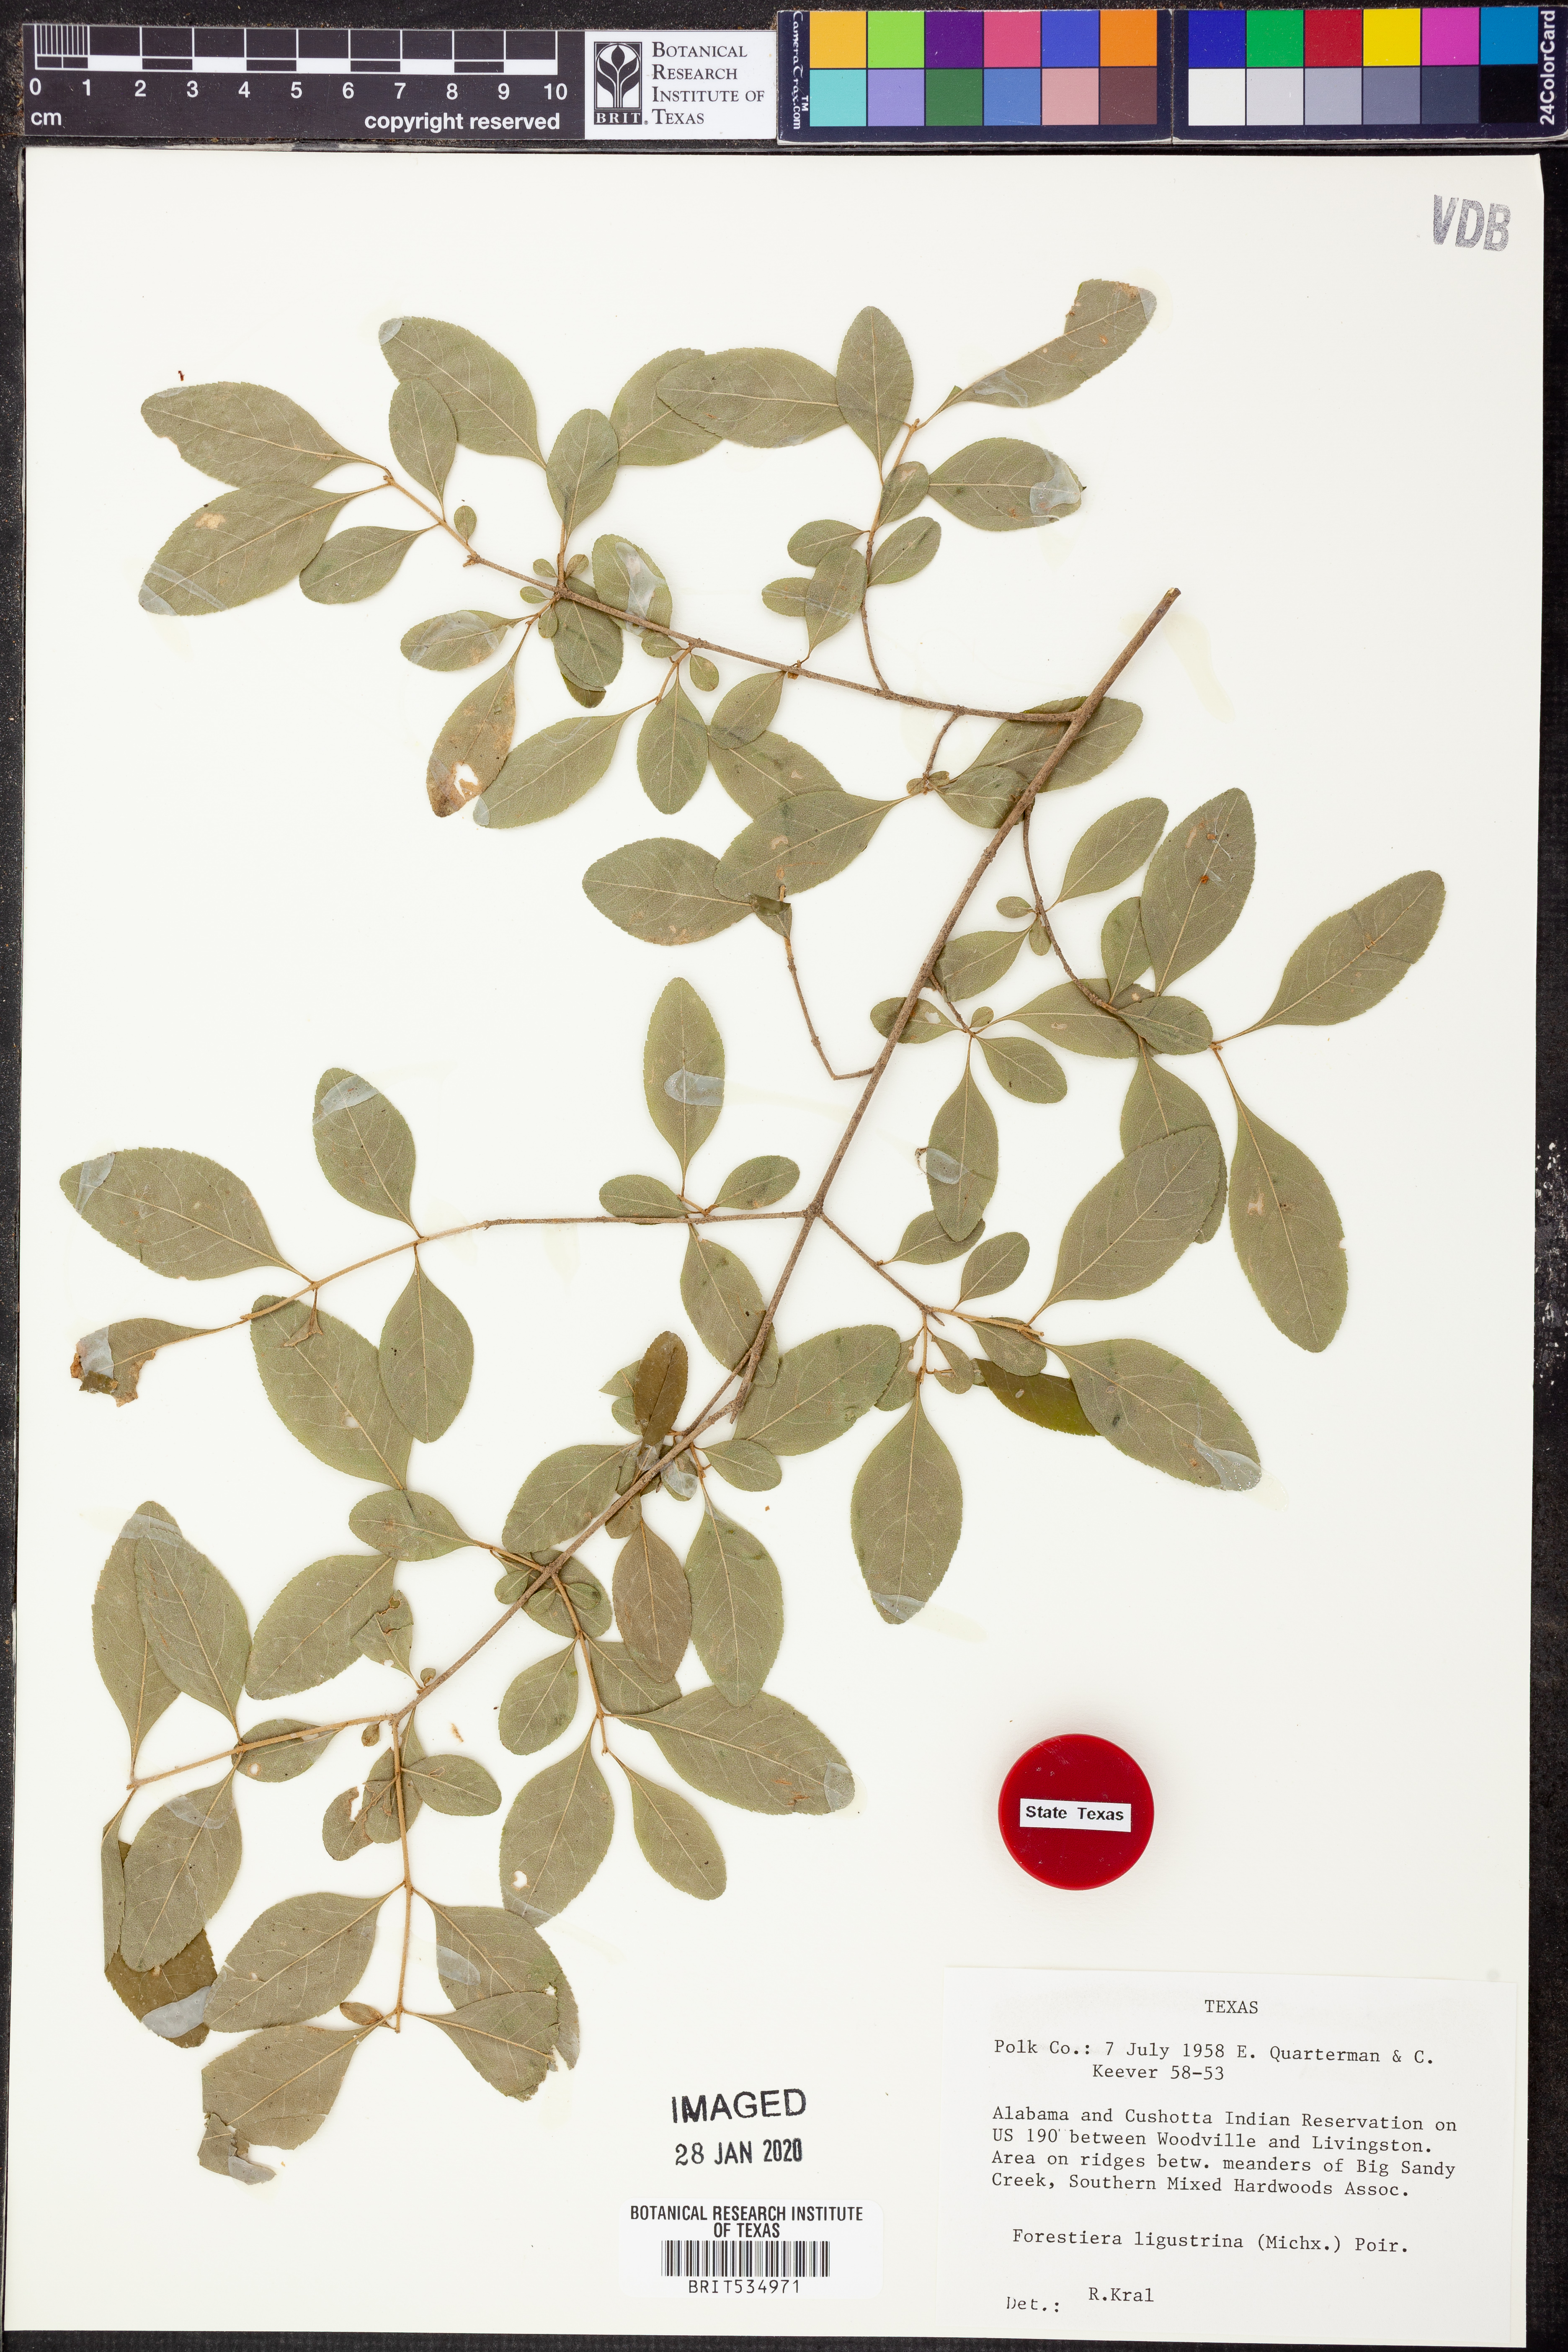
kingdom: Plantae
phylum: Tracheophyta
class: Magnoliopsida
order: Lamiales
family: Oleaceae
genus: Forestiera
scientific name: Forestiera ligustrina
